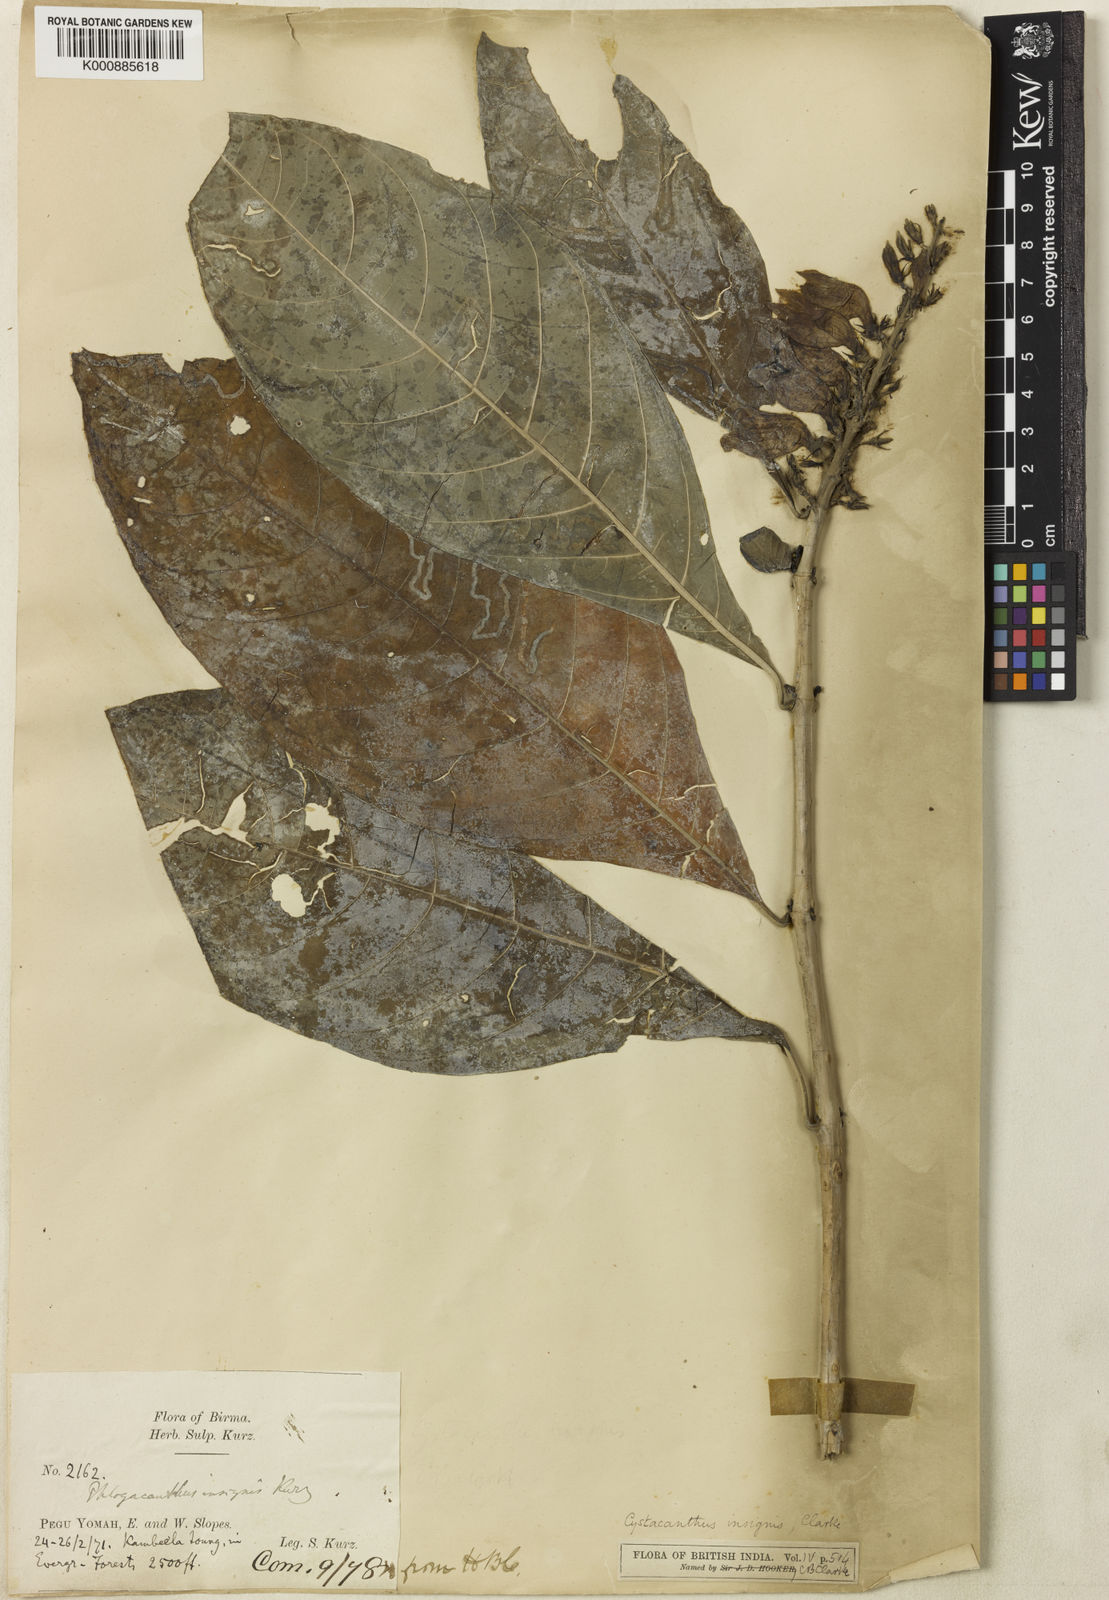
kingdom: Plantae
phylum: Tracheophyta
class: Magnoliopsida
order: Lamiales
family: Acanthaceae
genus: Phlogacanthus
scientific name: Phlogacanthus insignis
